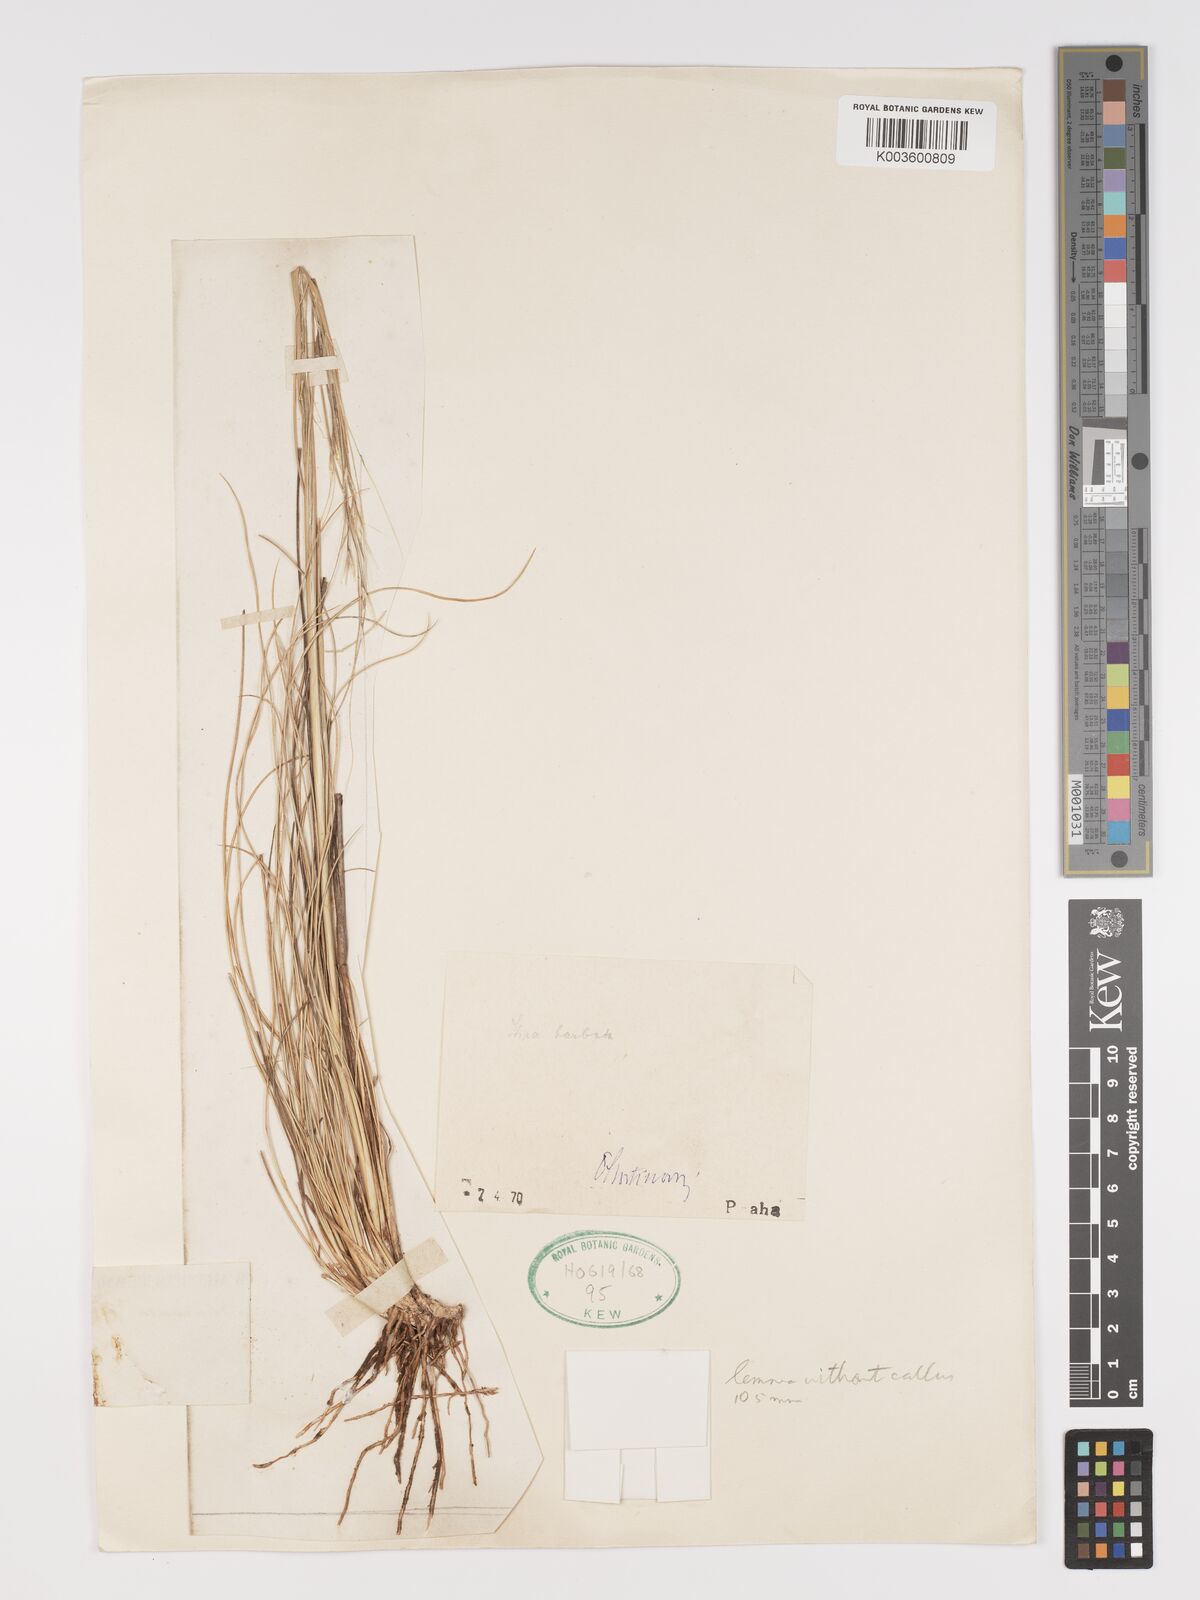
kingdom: Plantae
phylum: Tracheophyta
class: Liliopsida
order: Poales
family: Poaceae
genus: Stipa
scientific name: Stipa barbata
